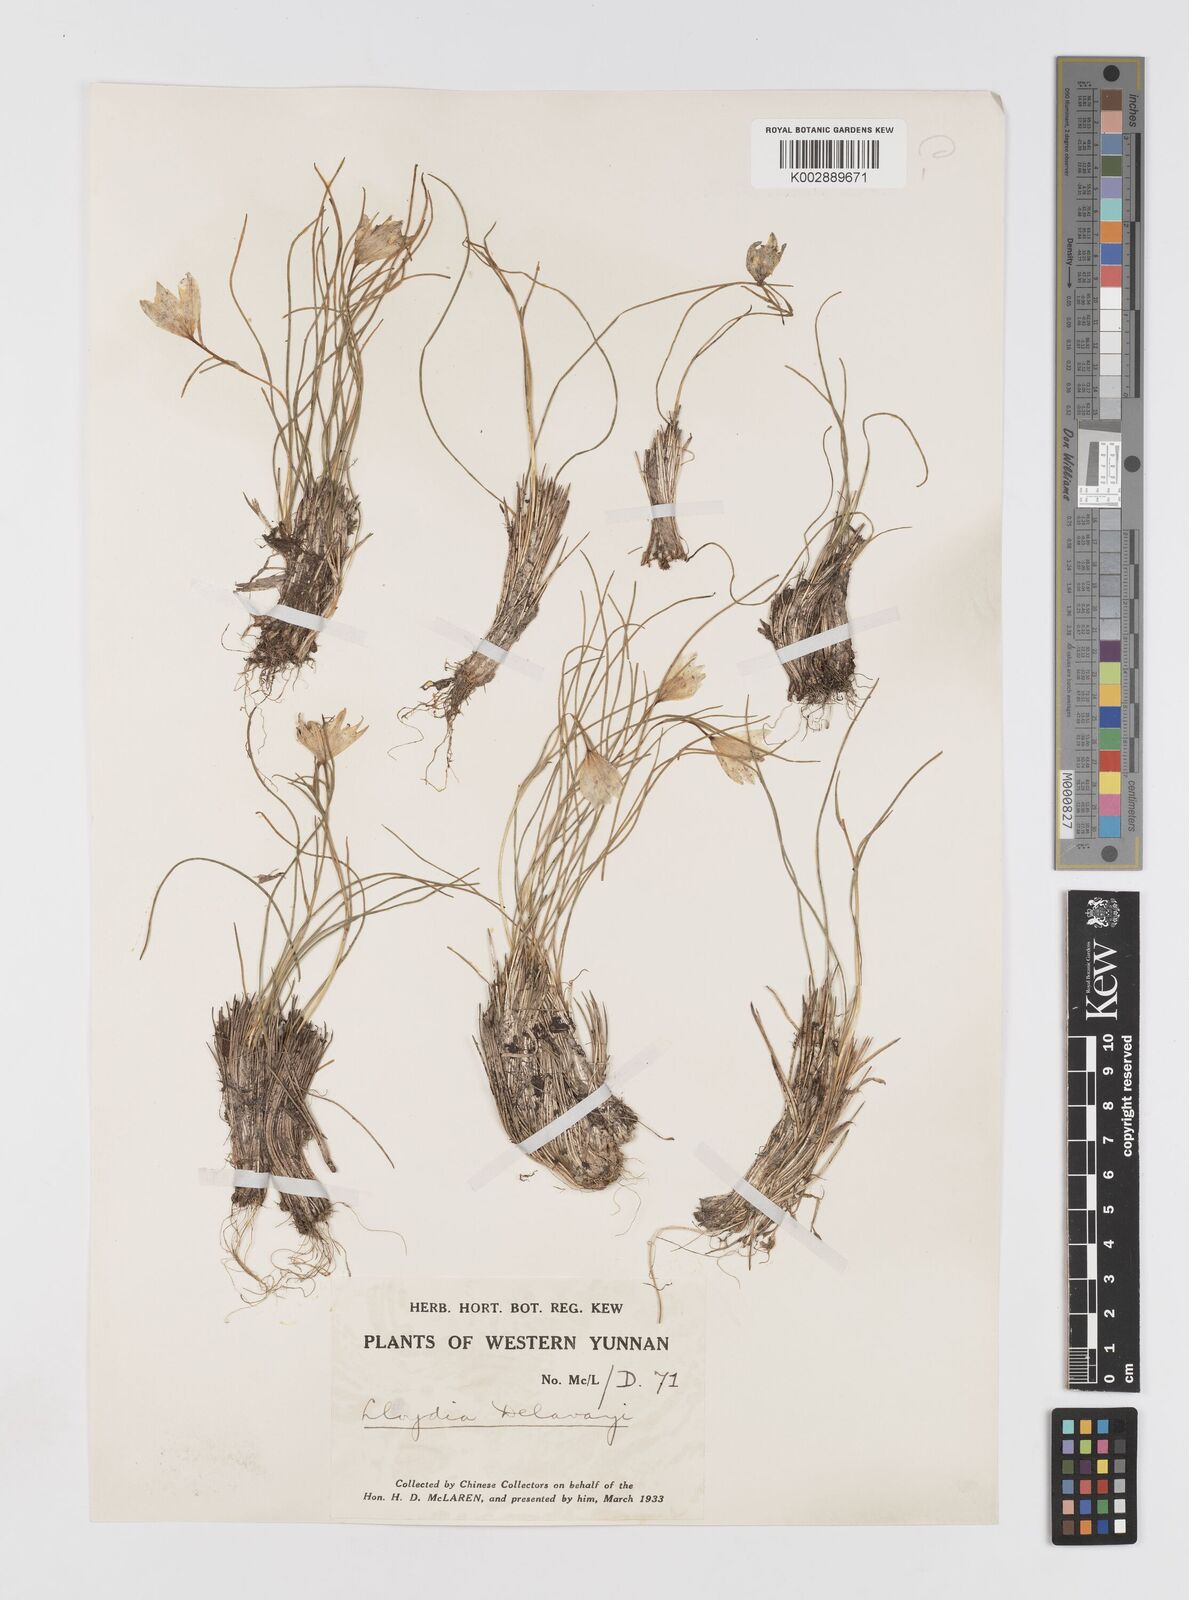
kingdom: Plantae
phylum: Tracheophyta
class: Liliopsida
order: Liliales
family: Liliaceae
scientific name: Liliaceae
